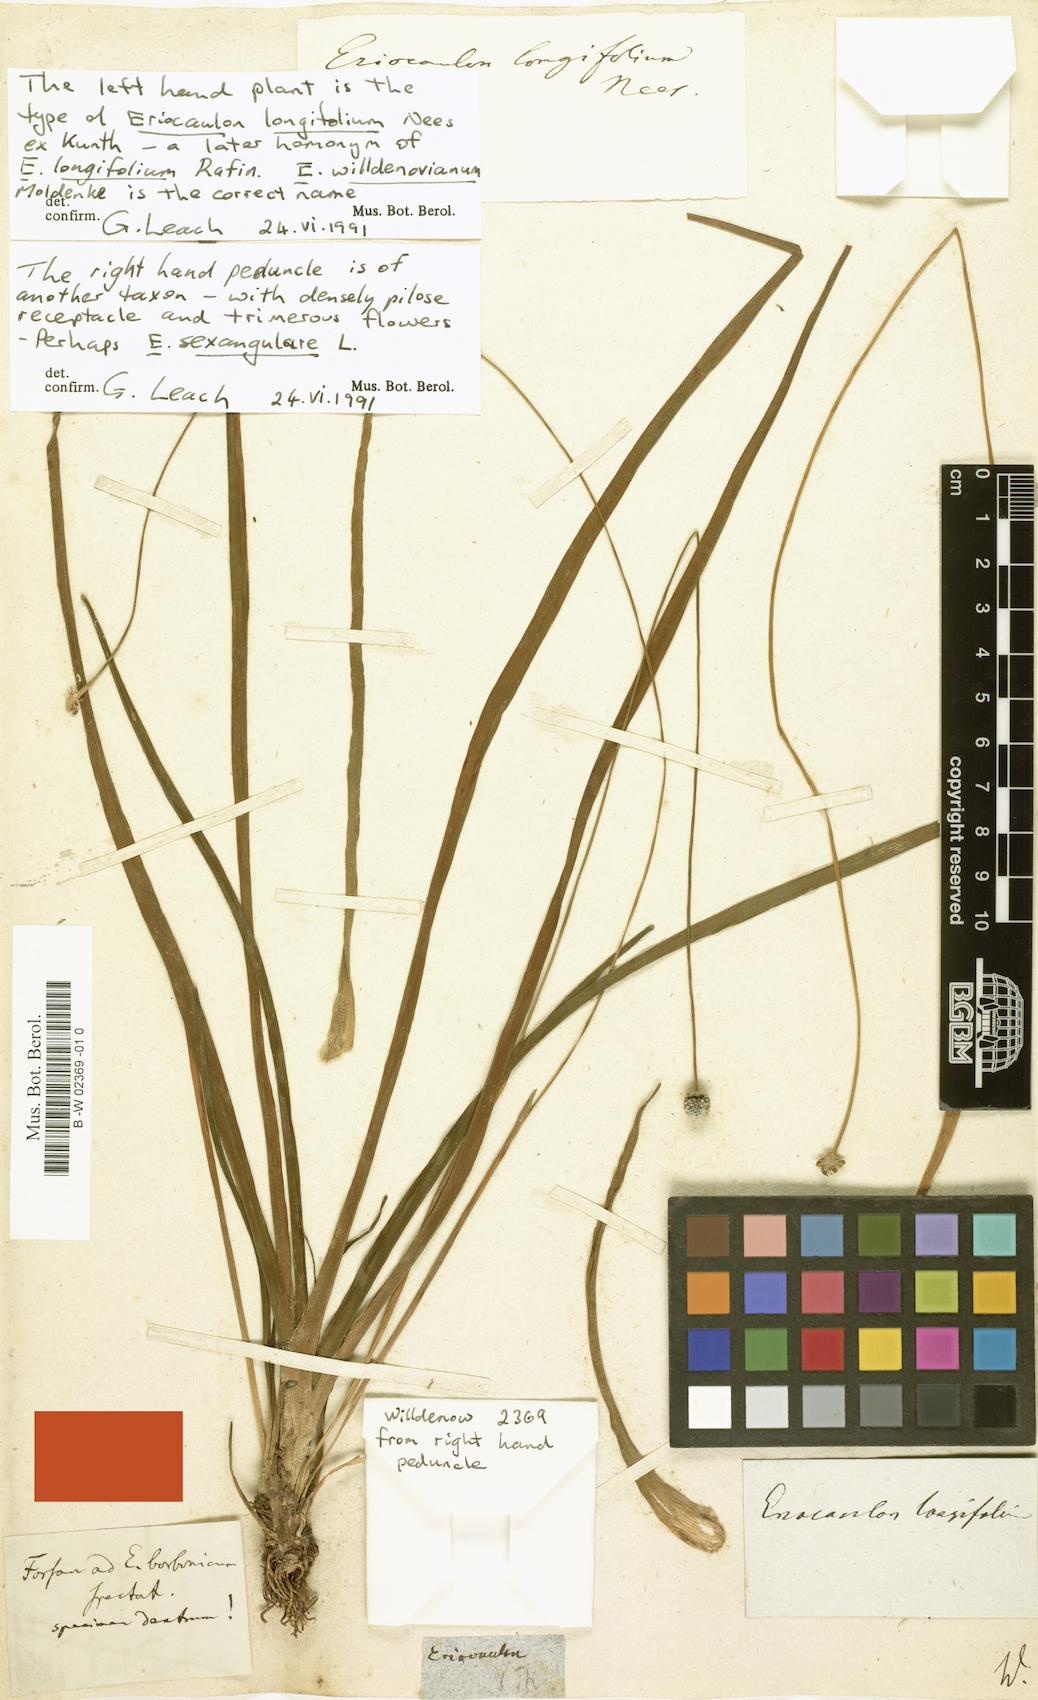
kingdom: Plantae
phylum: Tracheophyta
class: Liliopsida
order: Poales
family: Eriocaulaceae
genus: Eriocaulon
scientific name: Eriocaulon
